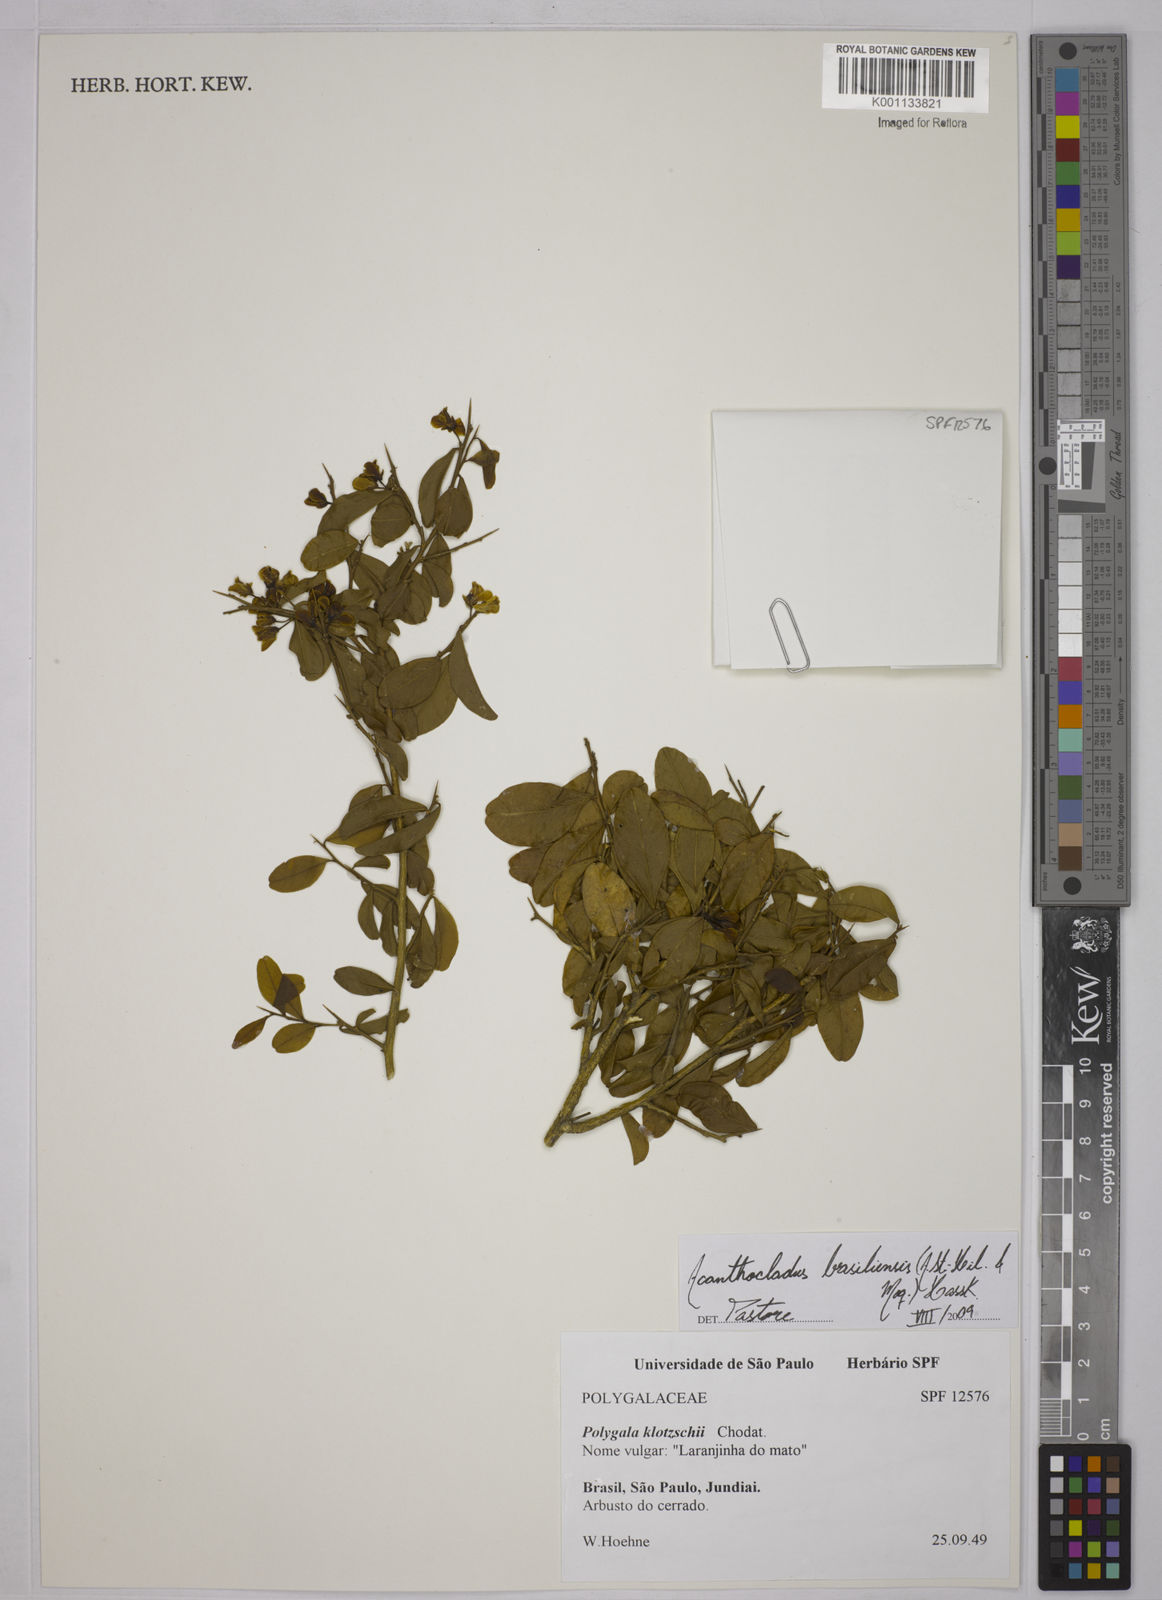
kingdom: Plantae
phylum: Tracheophyta
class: Magnoliopsida
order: Fabales
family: Polygalaceae
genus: Acanthocladus
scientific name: Acanthocladus brasiliensis
